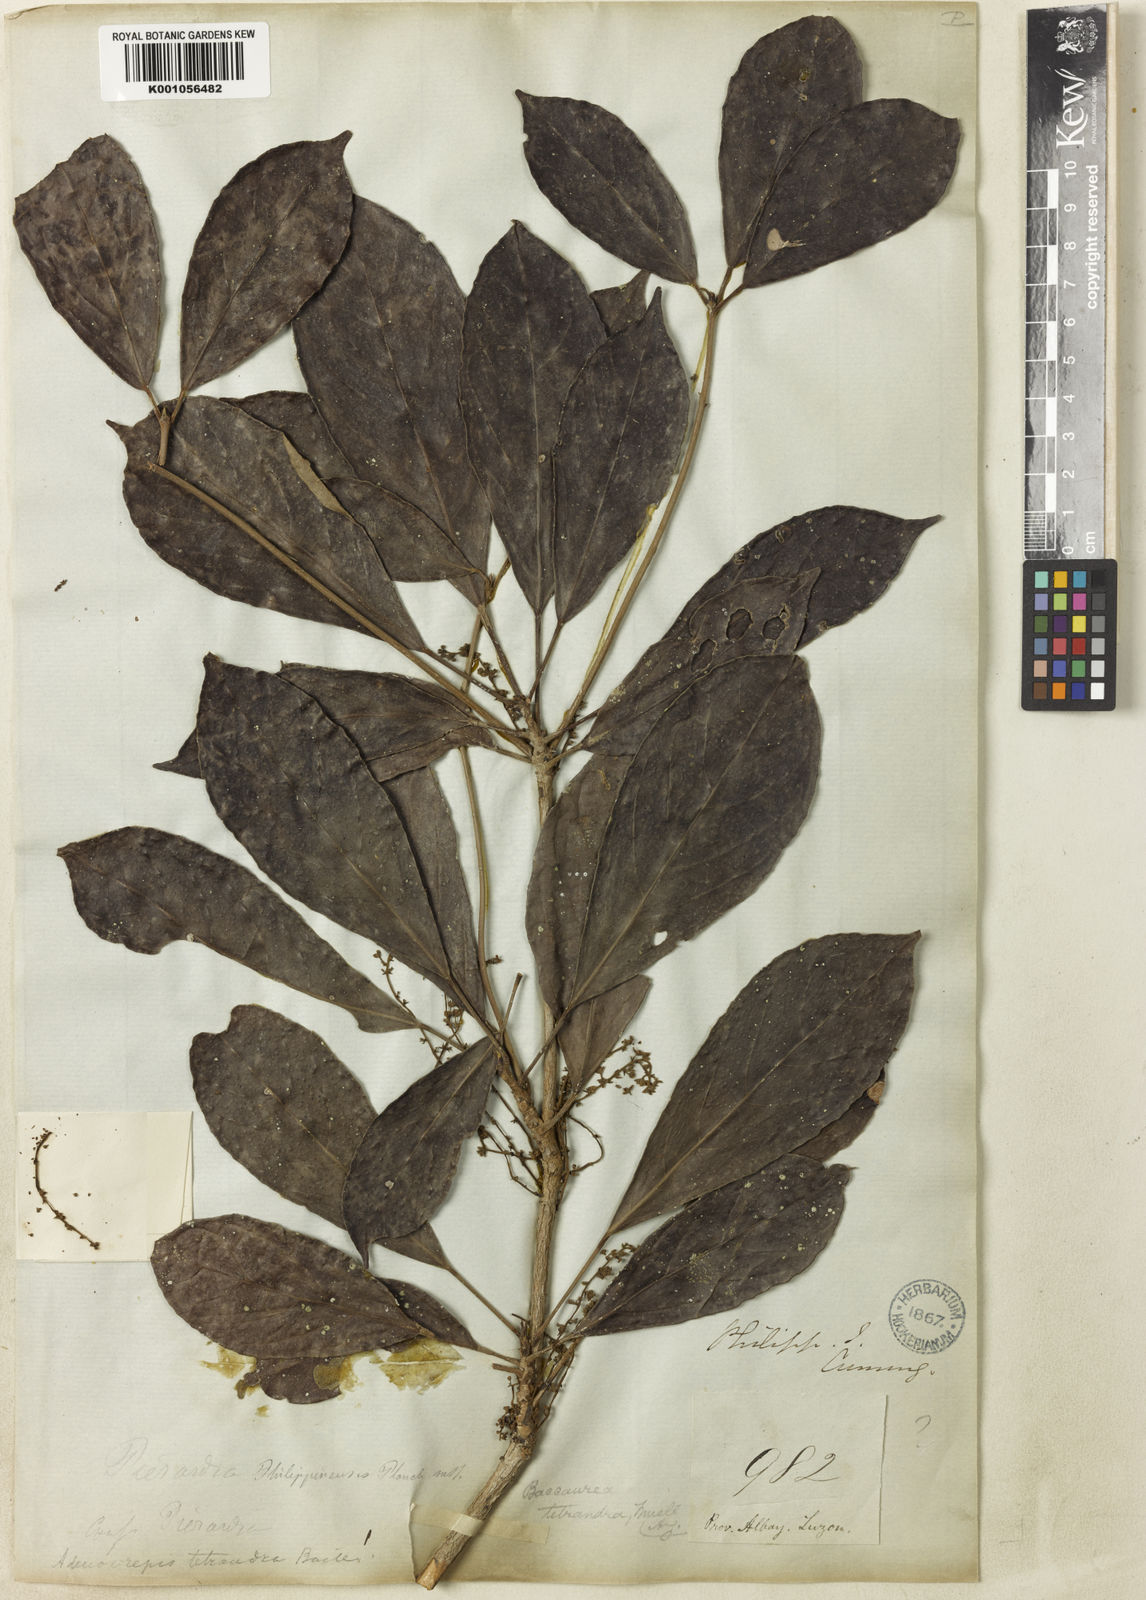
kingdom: Plantae
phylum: Tracheophyta
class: Magnoliopsida
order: Malpighiales
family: Phyllanthaceae
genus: Baccaurea
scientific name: Baccaurea
